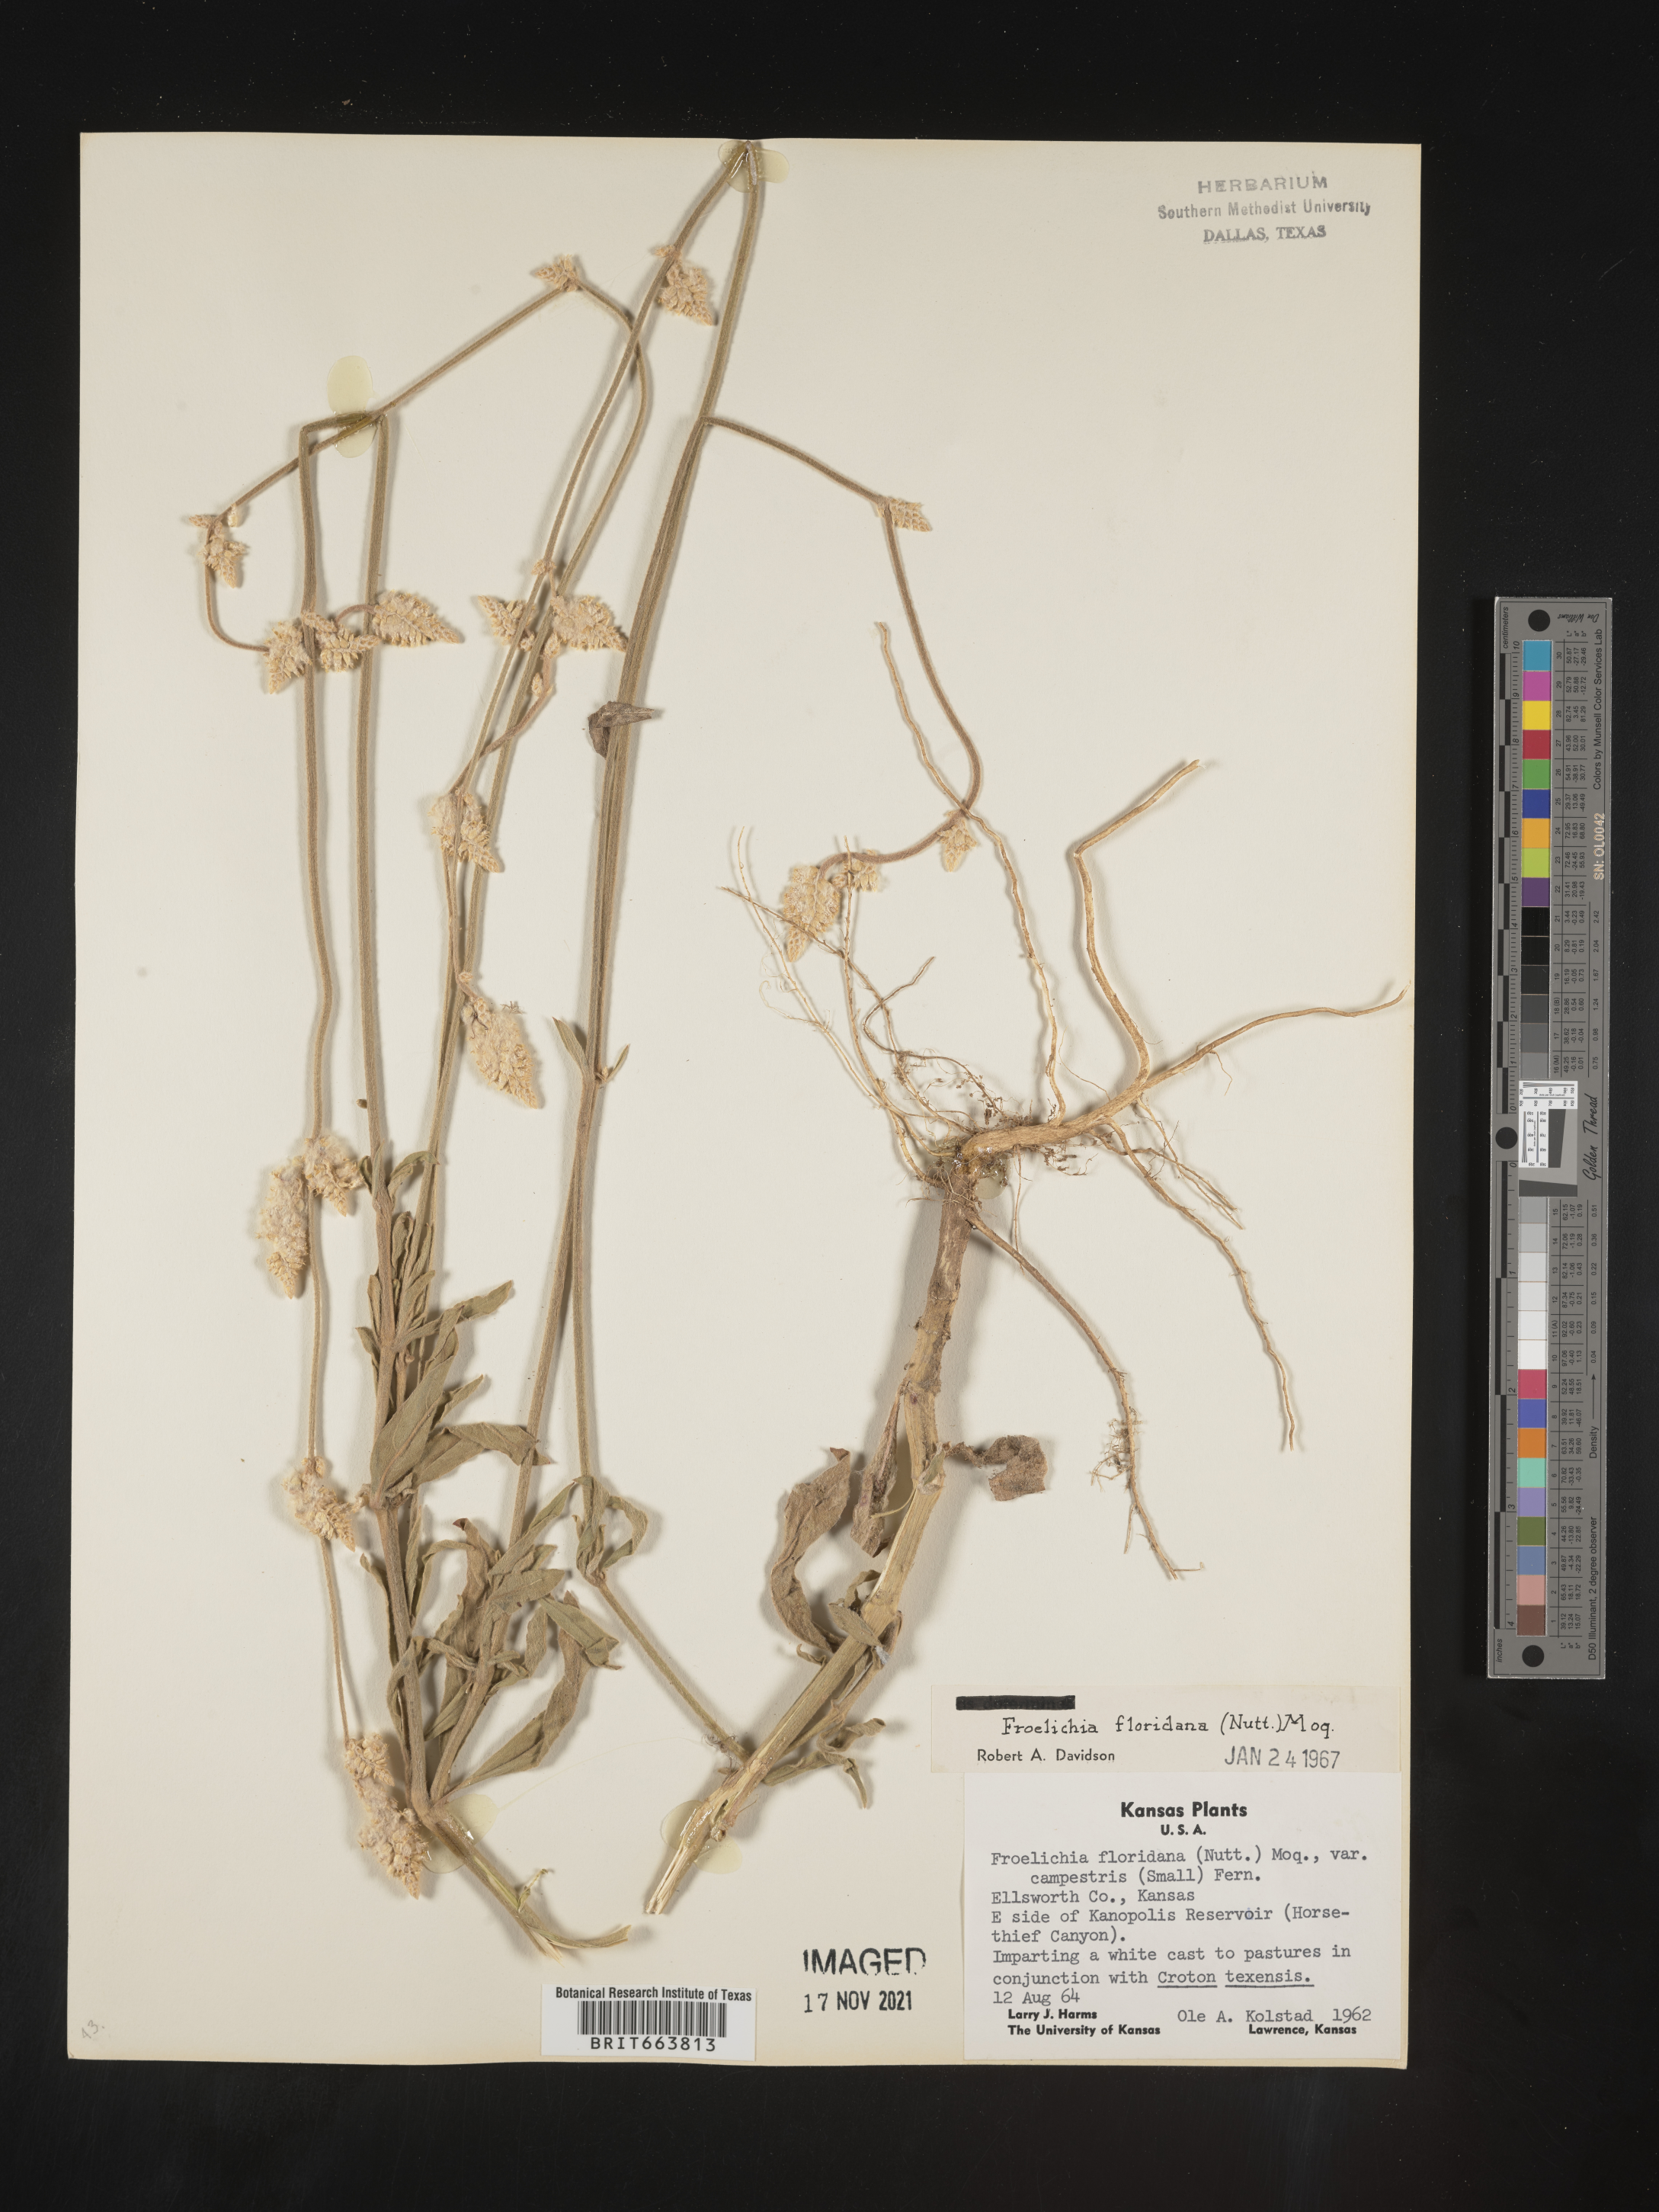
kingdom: Plantae
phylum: Tracheophyta
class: Magnoliopsida
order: Caryophyllales
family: Amaranthaceae
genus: Froelichia
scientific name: Froelichia floridana
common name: Florida snake-cotton
